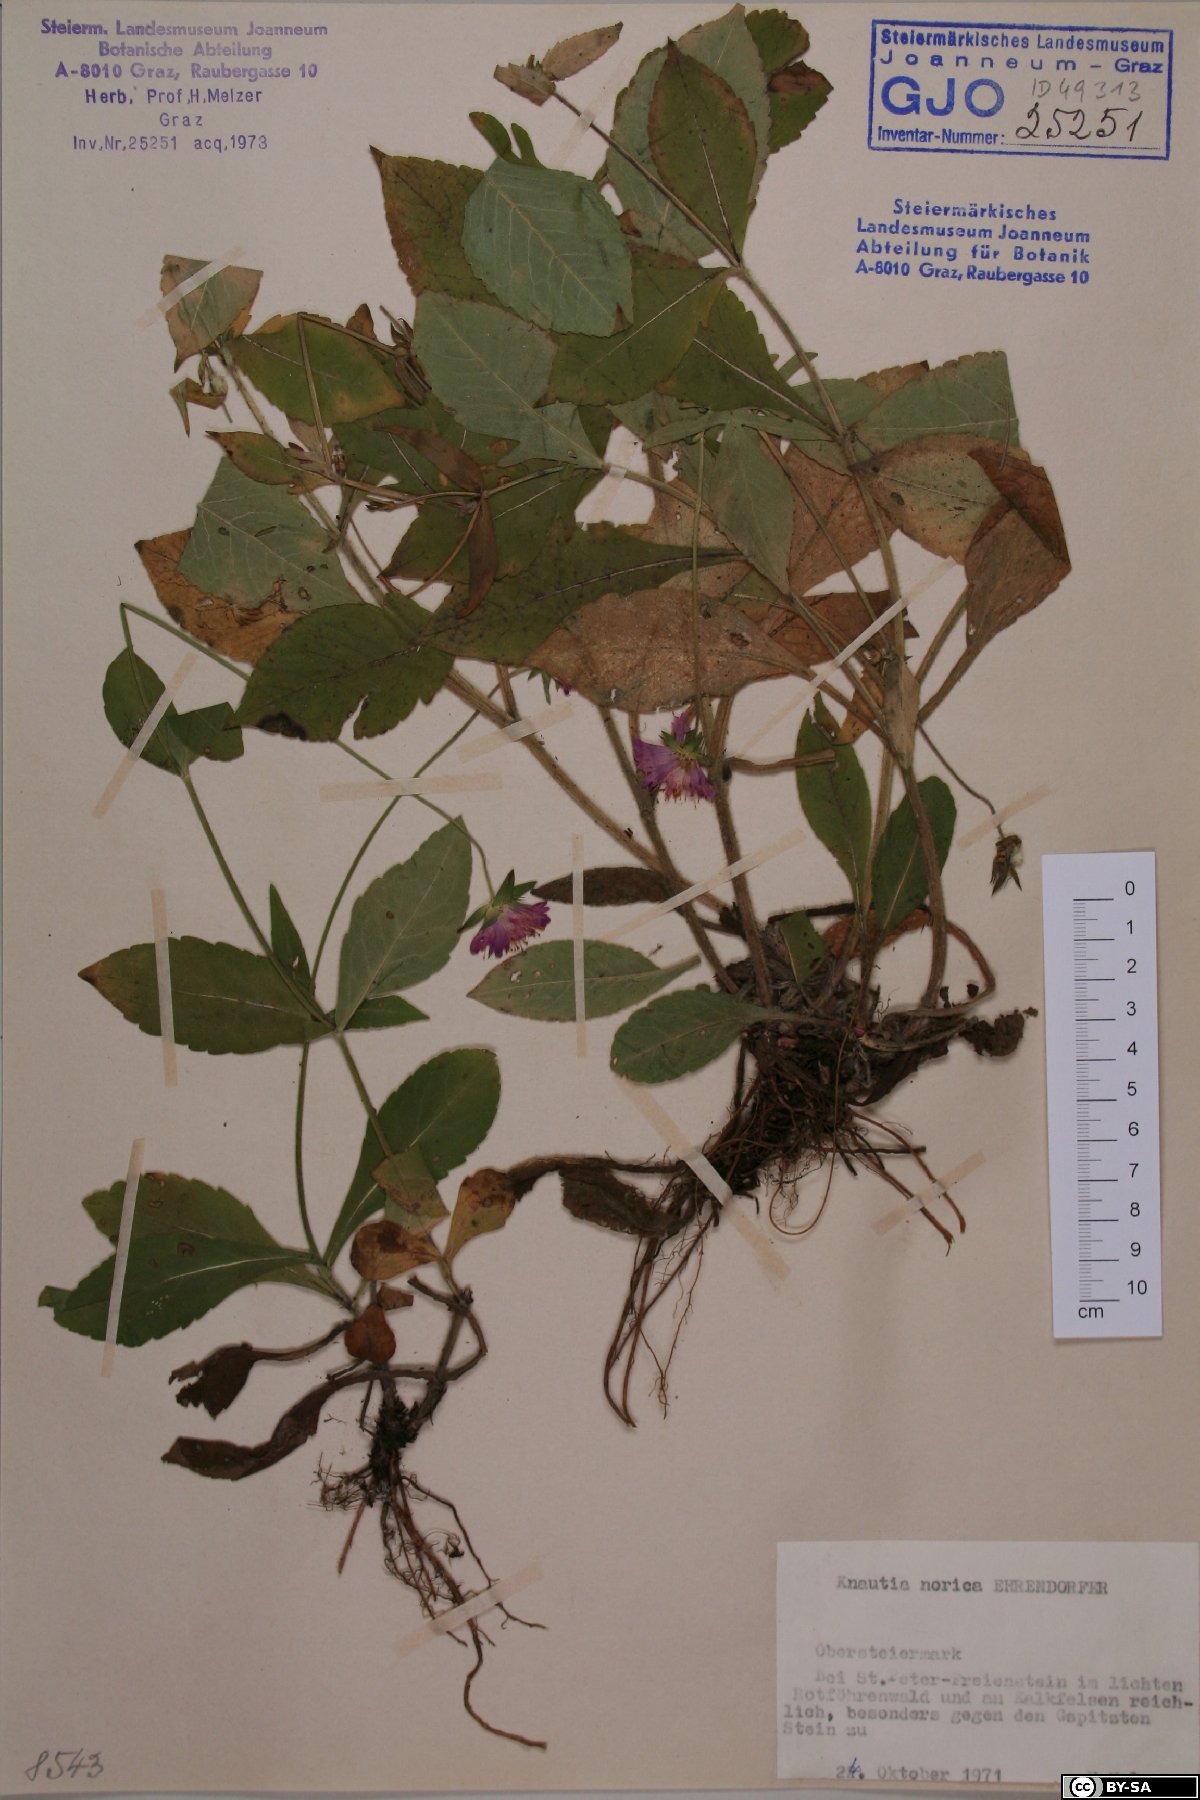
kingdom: Plantae
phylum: Tracheophyta
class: Magnoliopsida
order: Dipsacales
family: Caprifoliaceae
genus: Knautia
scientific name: Knautia norica
